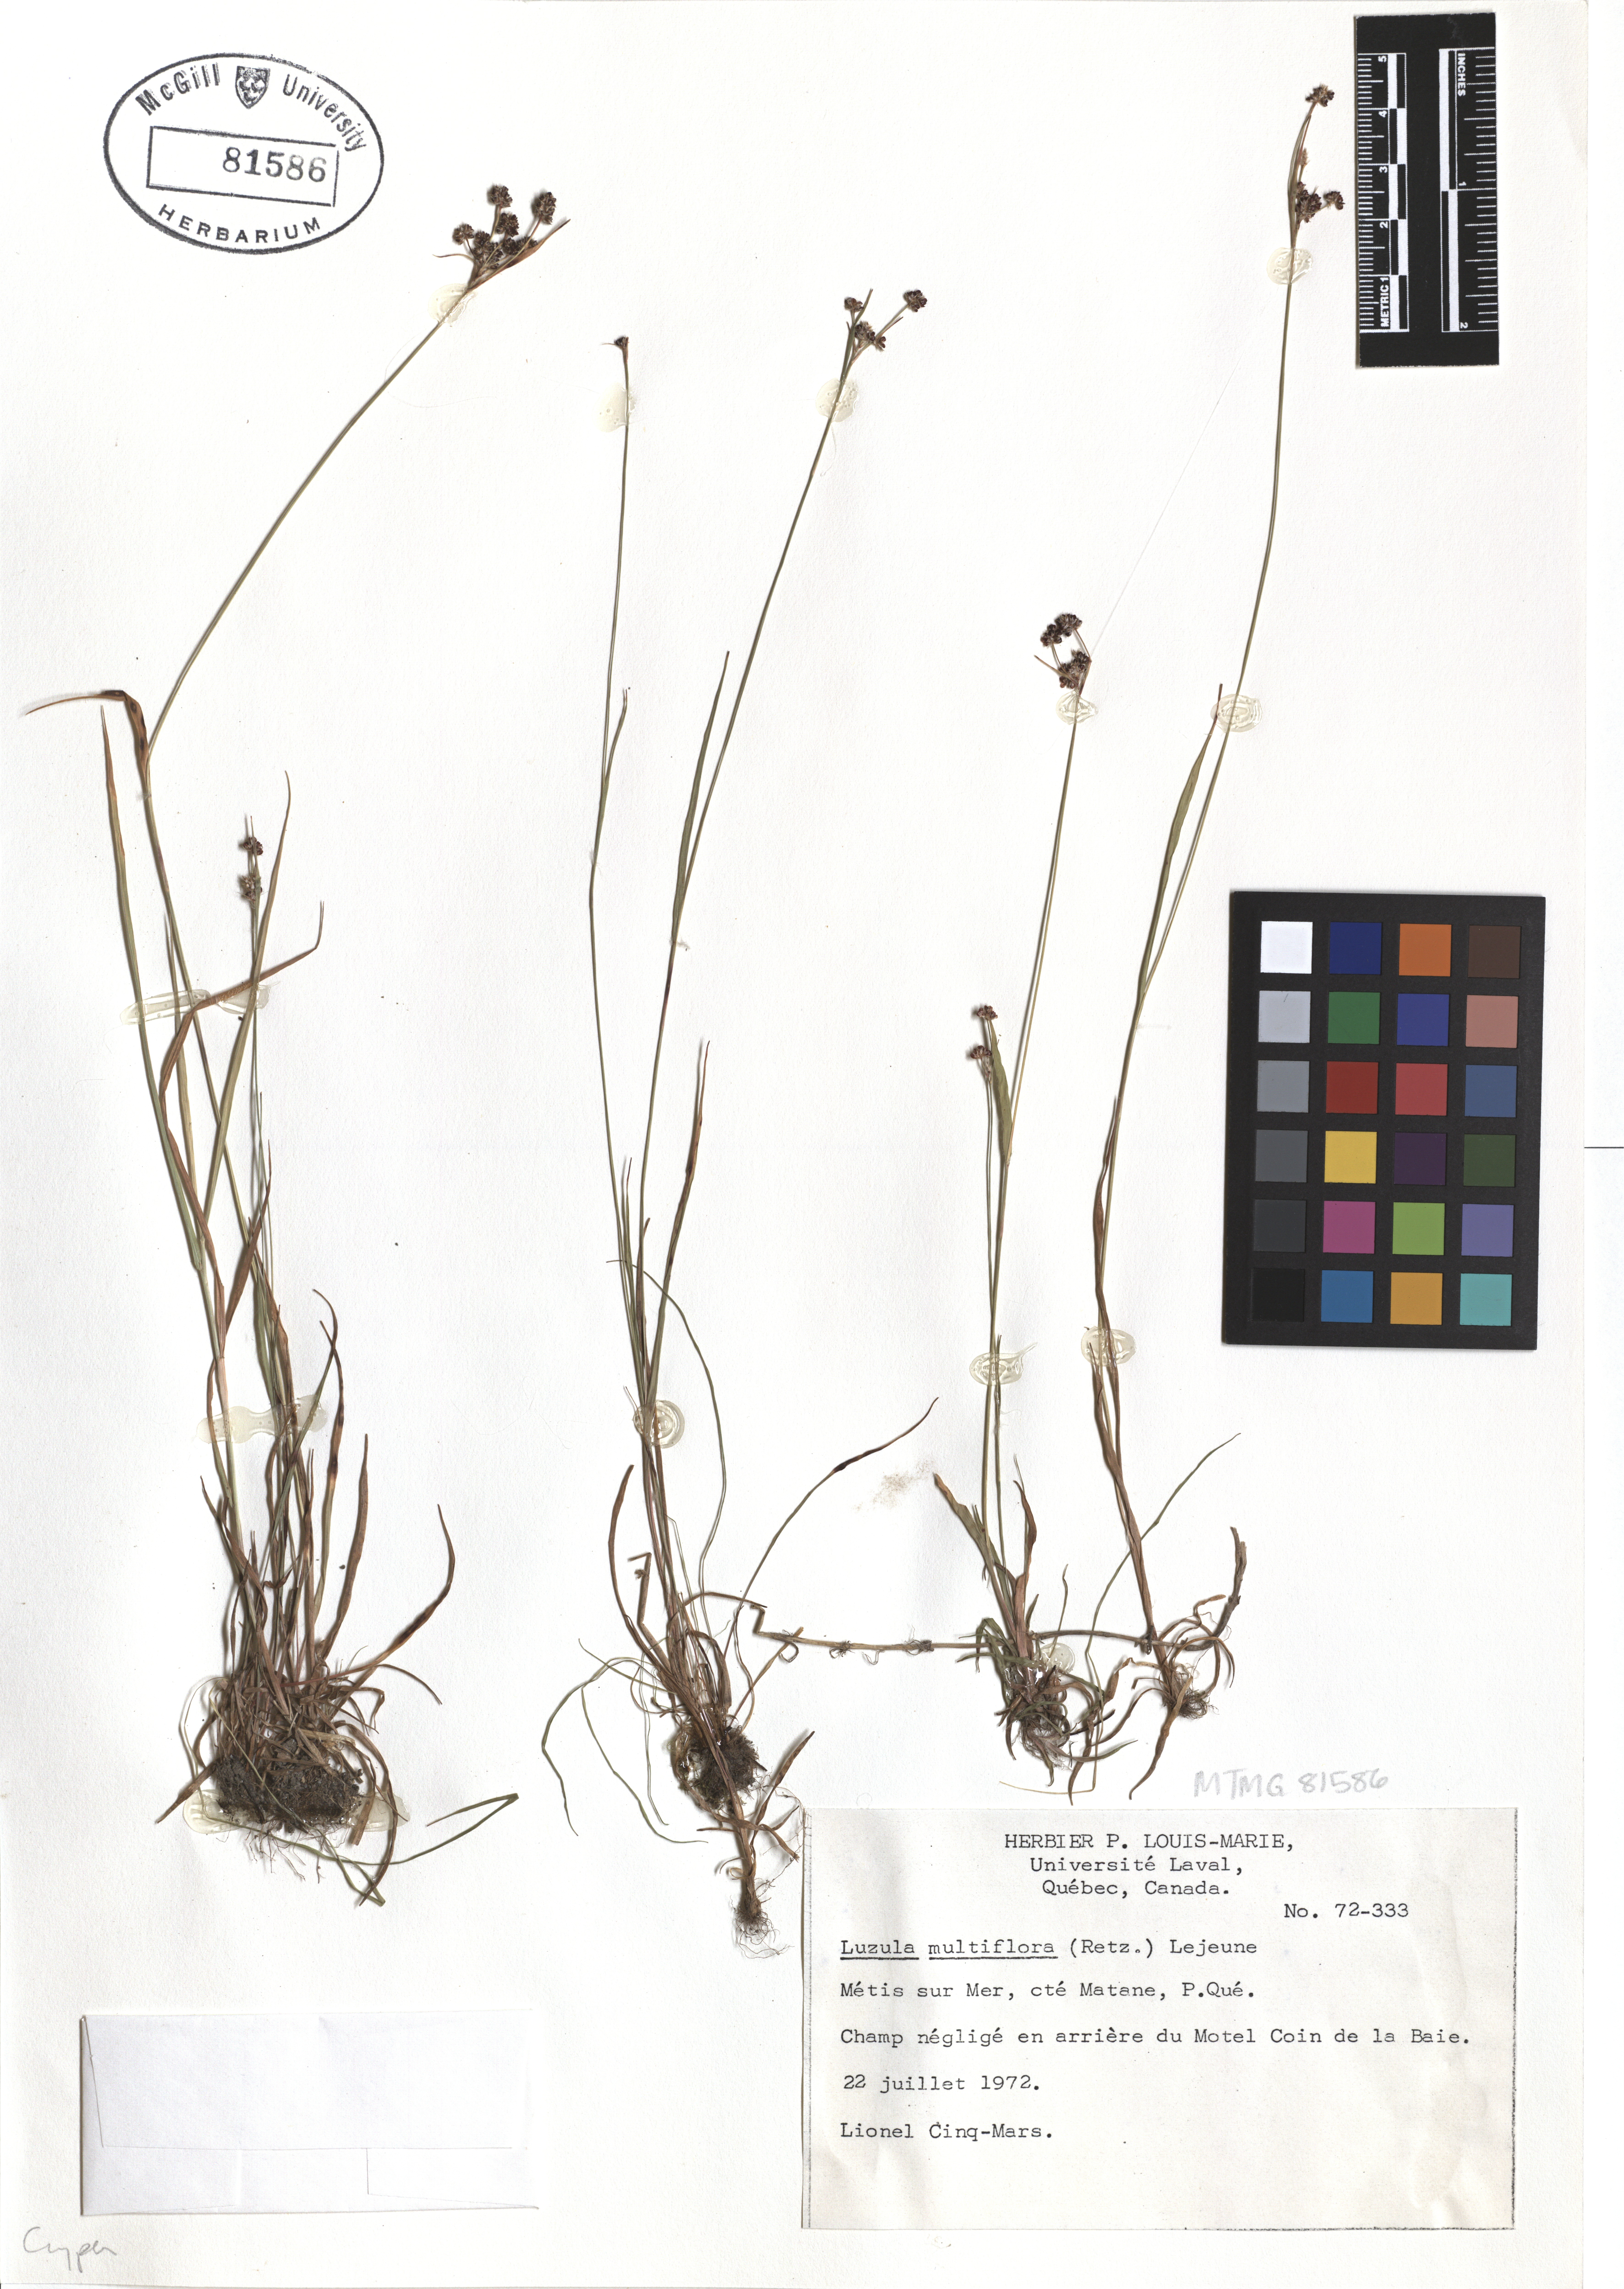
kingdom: Plantae
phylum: Tracheophyta
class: Liliopsida
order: Poales
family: Juncaceae
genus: Luzula
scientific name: Luzula multiflora
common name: Heath wood-rush
